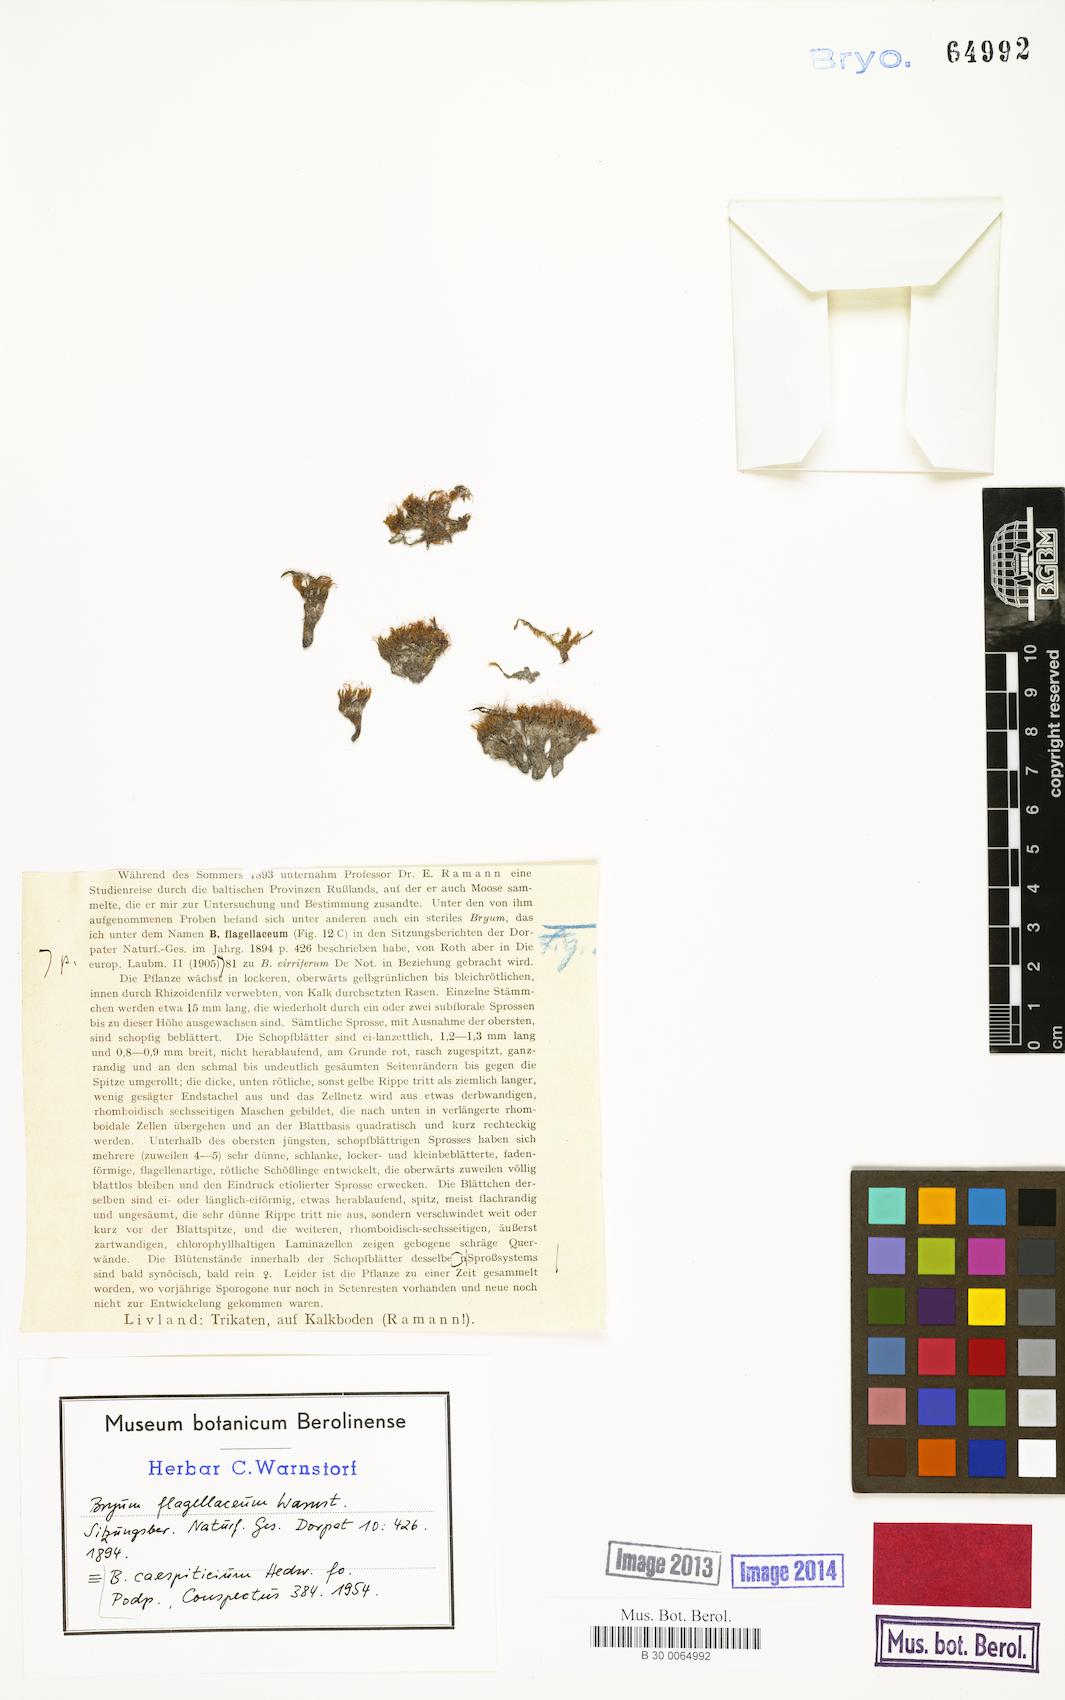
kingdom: Plantae
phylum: Bryophyta
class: Bryopsida
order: Bryales
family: Bryaceae
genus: Gemmabryum
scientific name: Gemmabryum caespiticium
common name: Handbell moss
